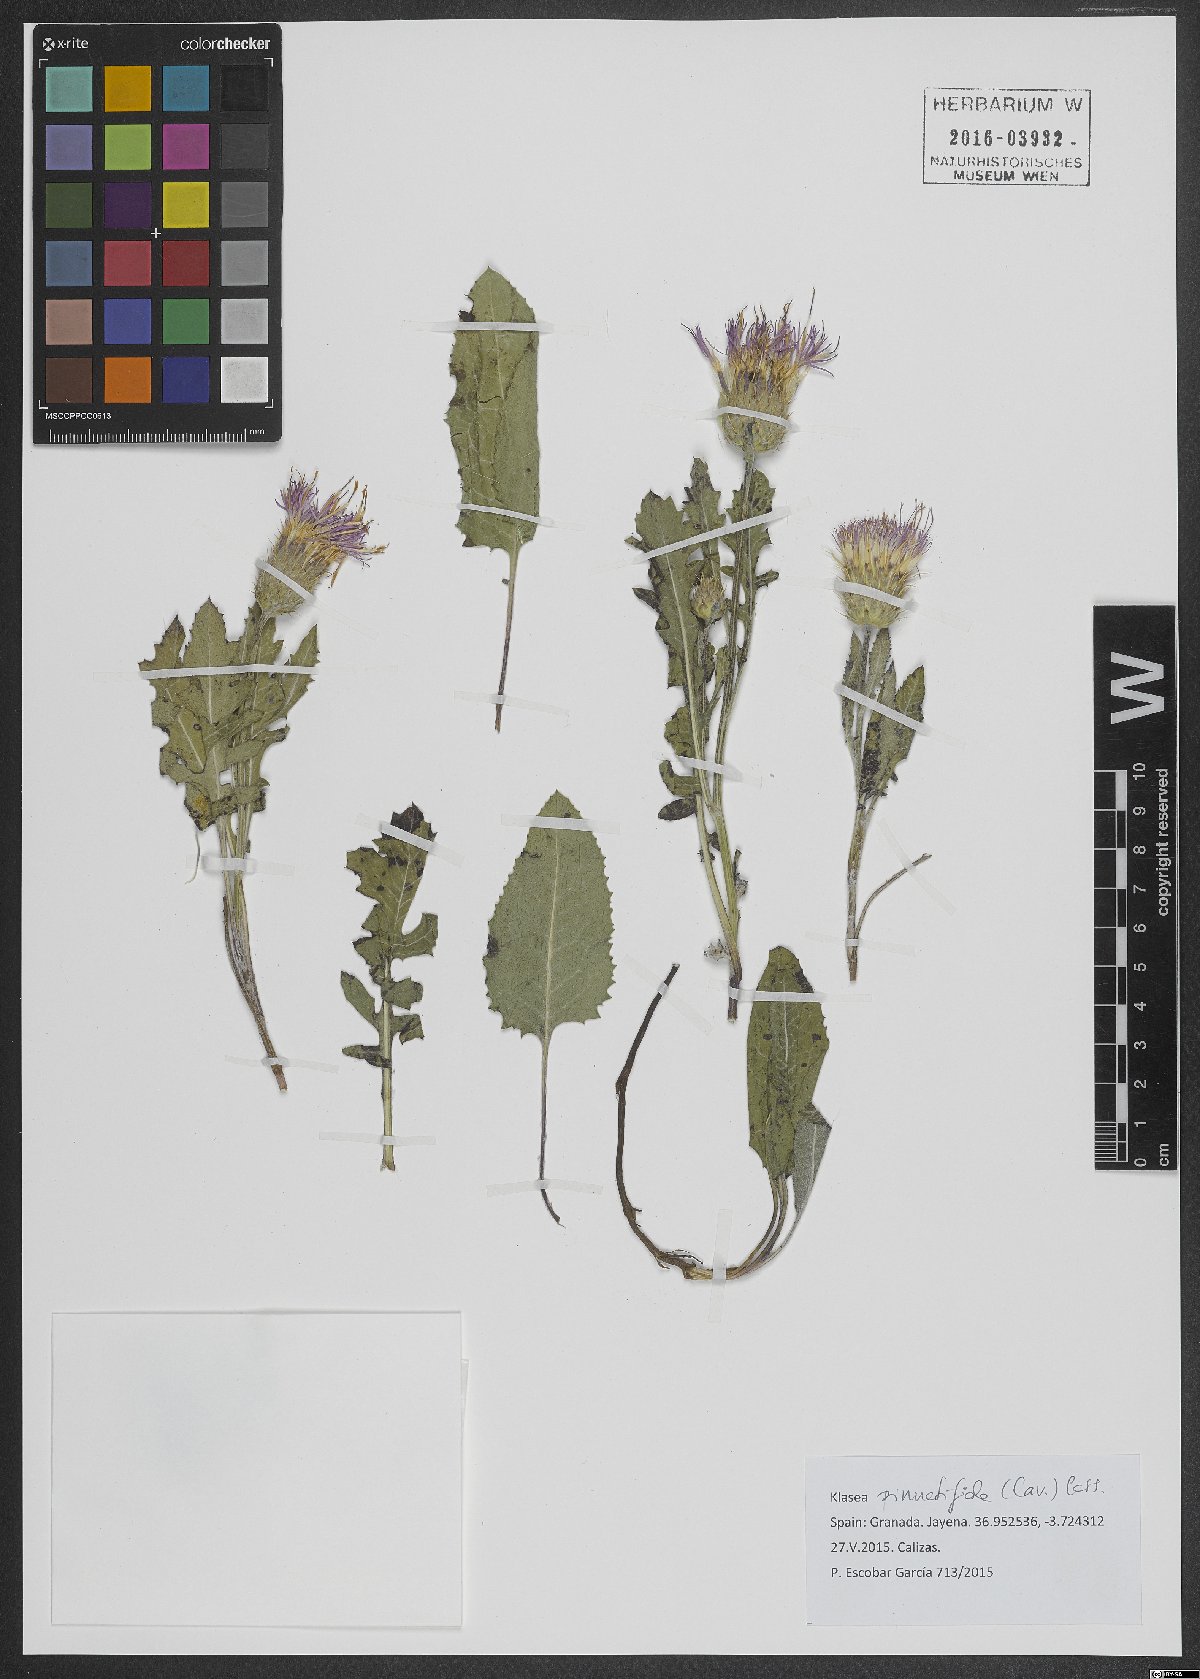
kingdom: Plantae
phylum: Tracheophyta
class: Magnoliopsida
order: Asterales
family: Asteraceae
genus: Klasea
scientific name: Klasea radiata
